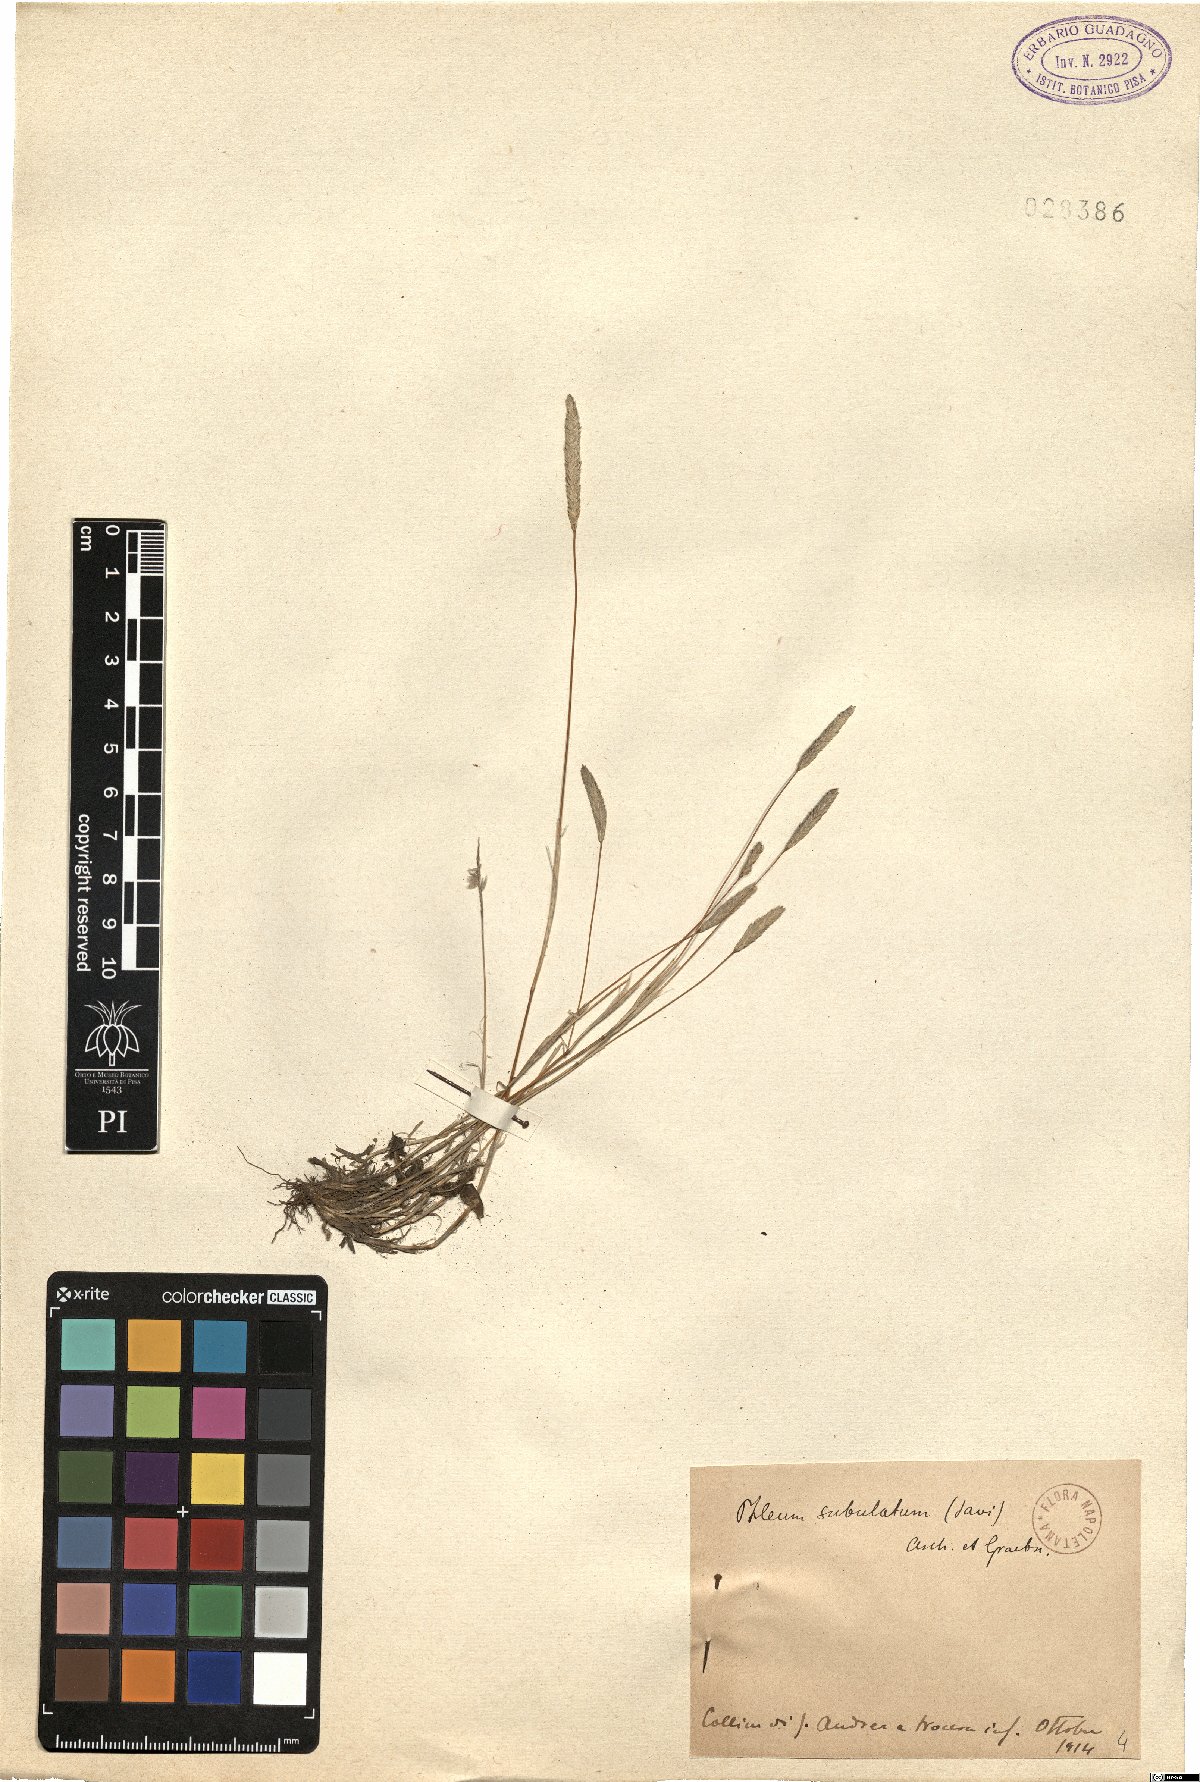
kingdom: Plantae
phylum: Tracheophyta
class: Liliopsida
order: Poales
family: Poaceae
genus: Phleum
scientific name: Phleum subulatum
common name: Italian timothy
